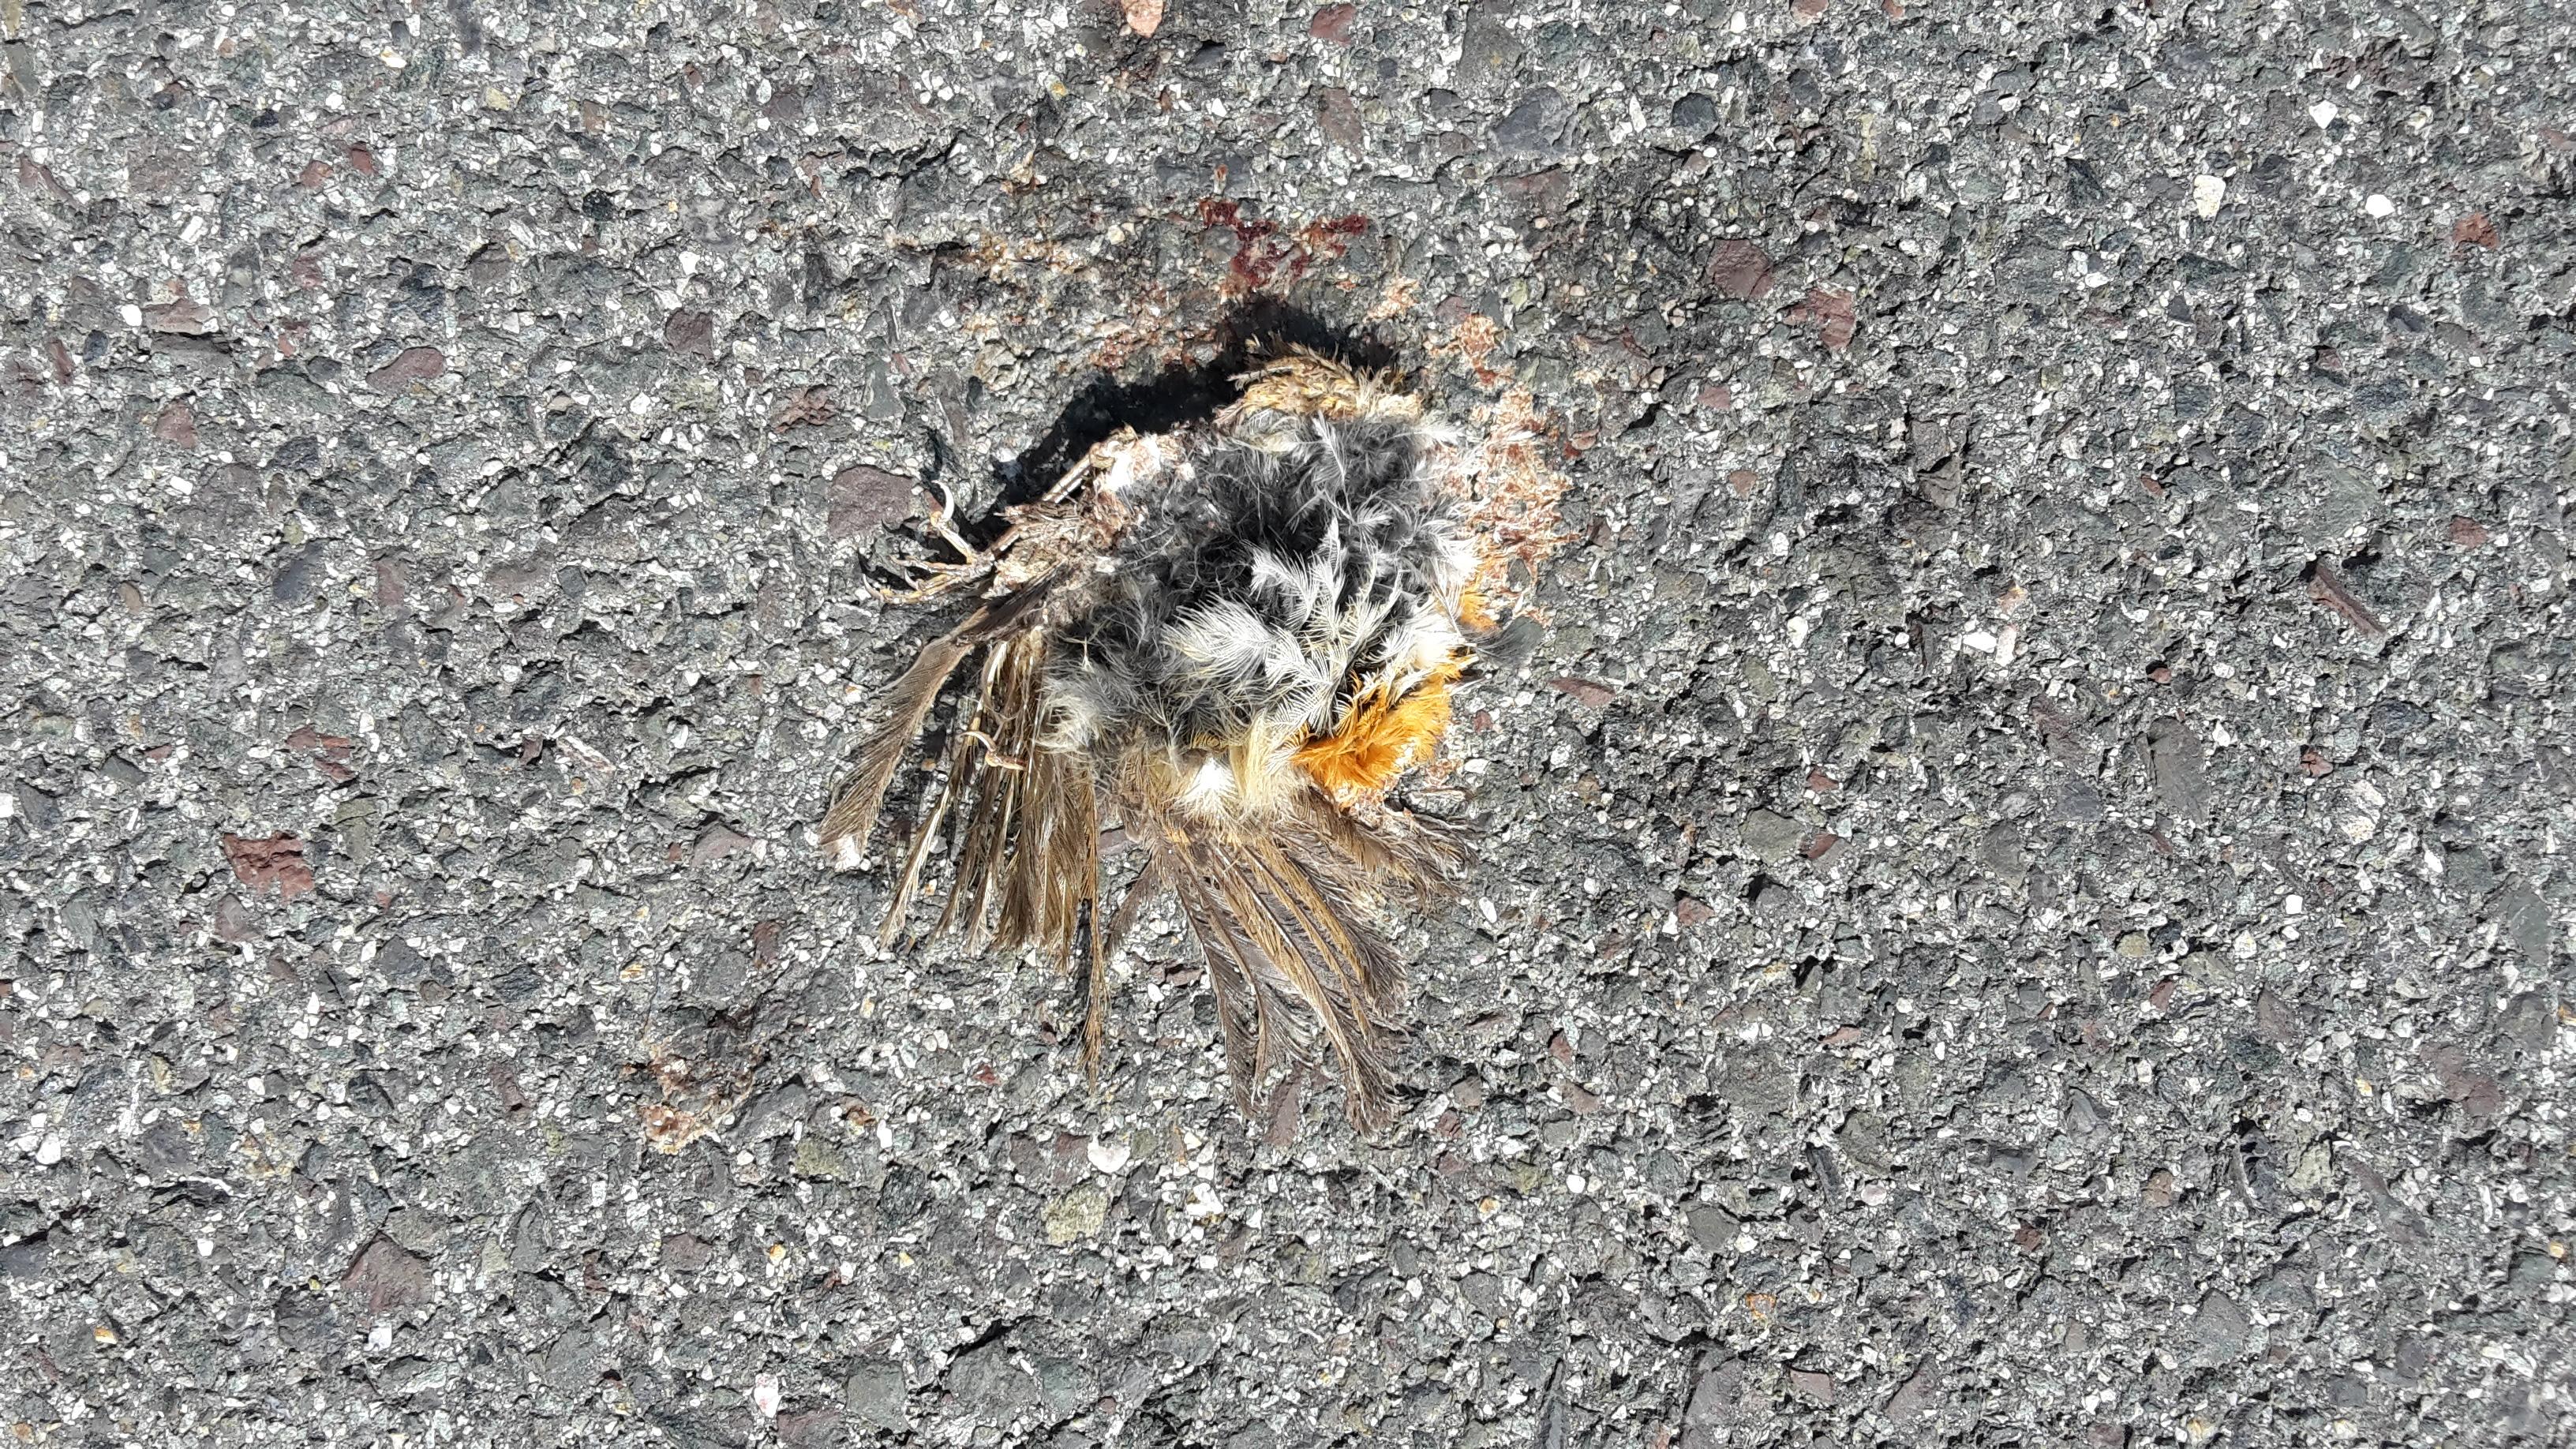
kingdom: Animalia
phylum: Chordata
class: Aves
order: Passeriformes
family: Muscicapidae
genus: Erithacus
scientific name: Erithacus rubecula
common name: European robin
